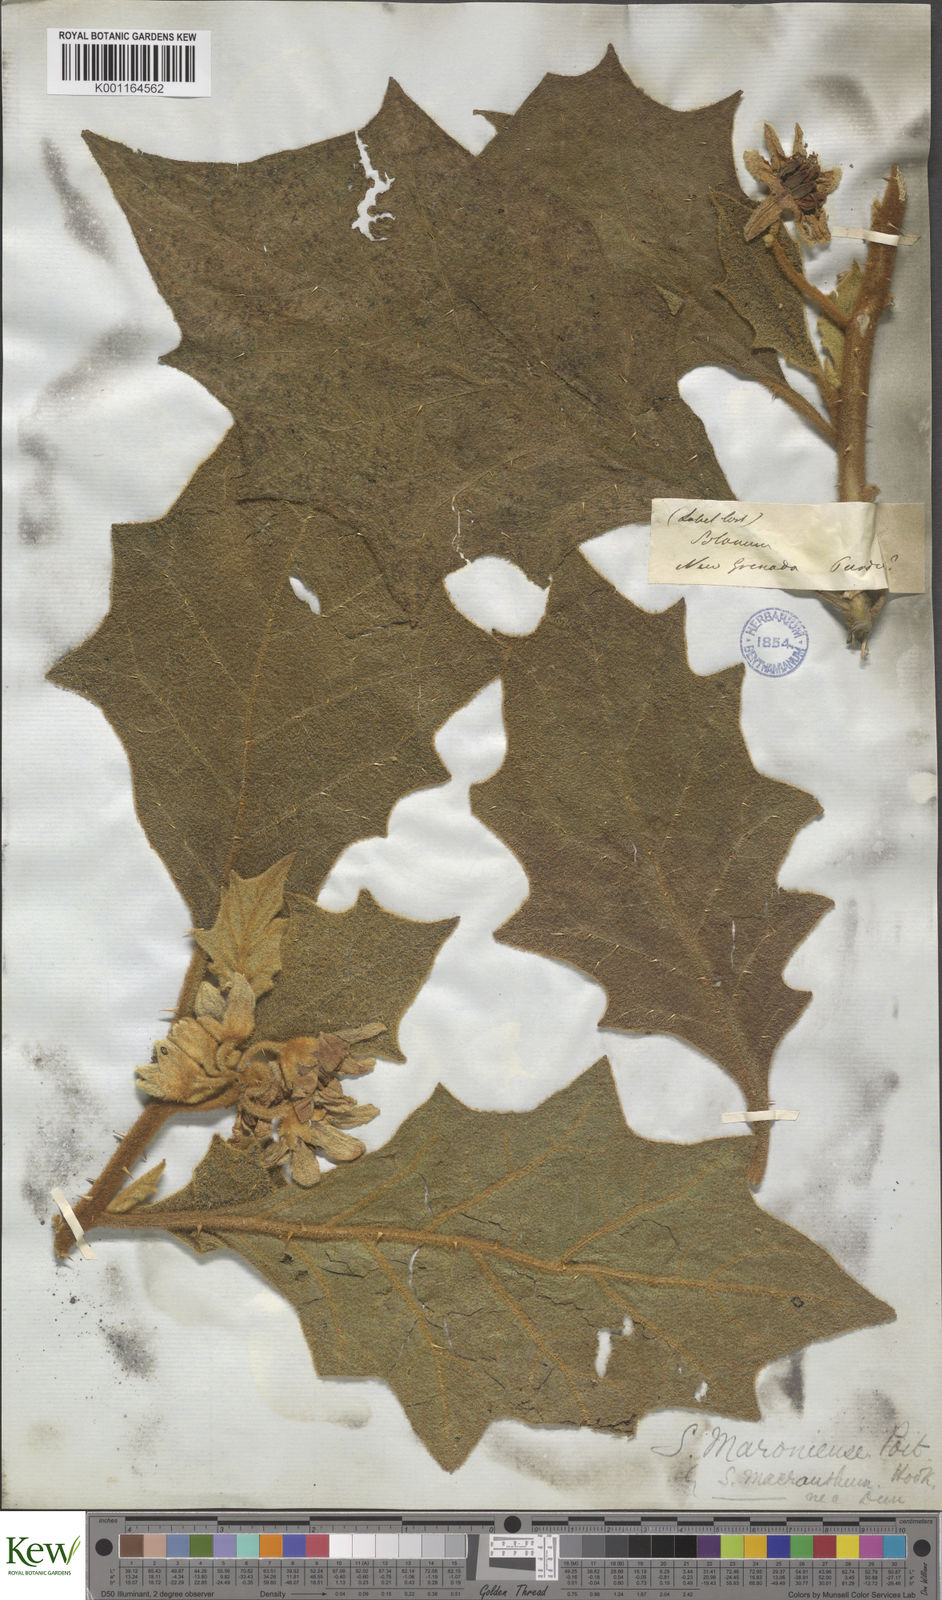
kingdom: Plantae
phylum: Tracheophyta
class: Magnoliopsida
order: Solanales
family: Solanaceae
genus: Solanum
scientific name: Solanum hexandrum
